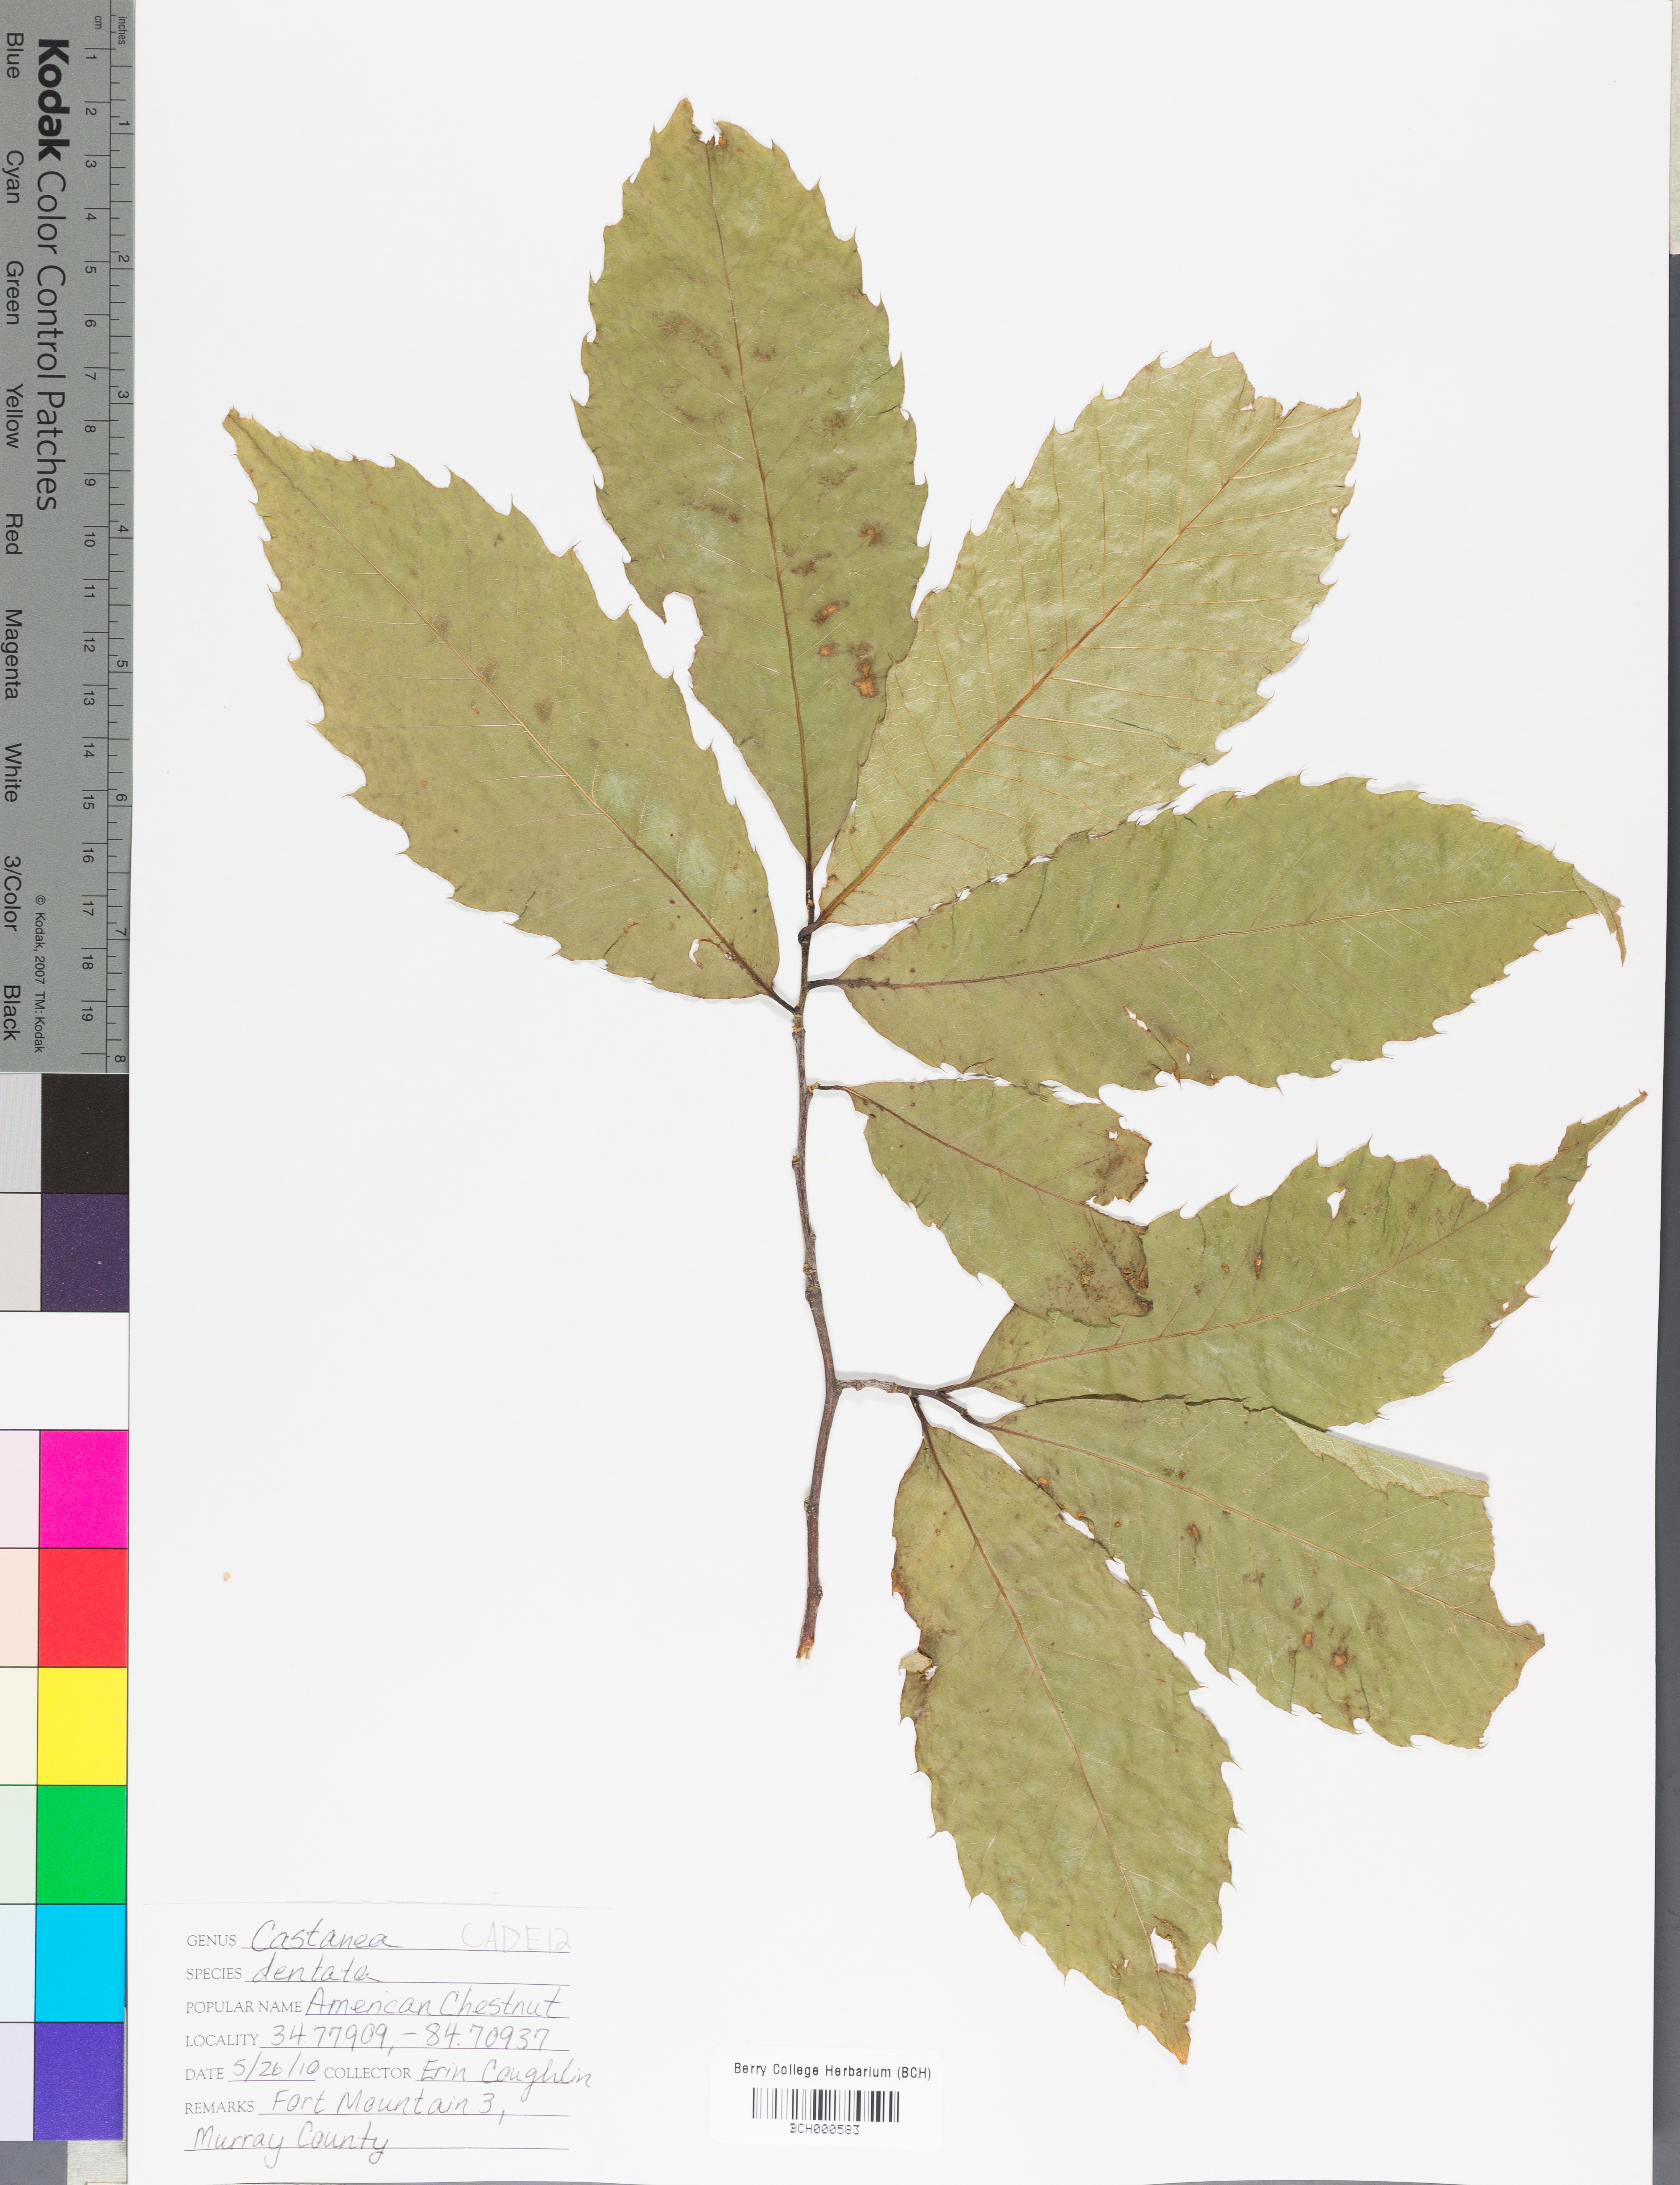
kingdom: Plantae
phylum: Tracheophyta
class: Magnoliopsida
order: Fagales
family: Fagaceae
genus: Castanea
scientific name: Castanea dentata
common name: American chestnut
